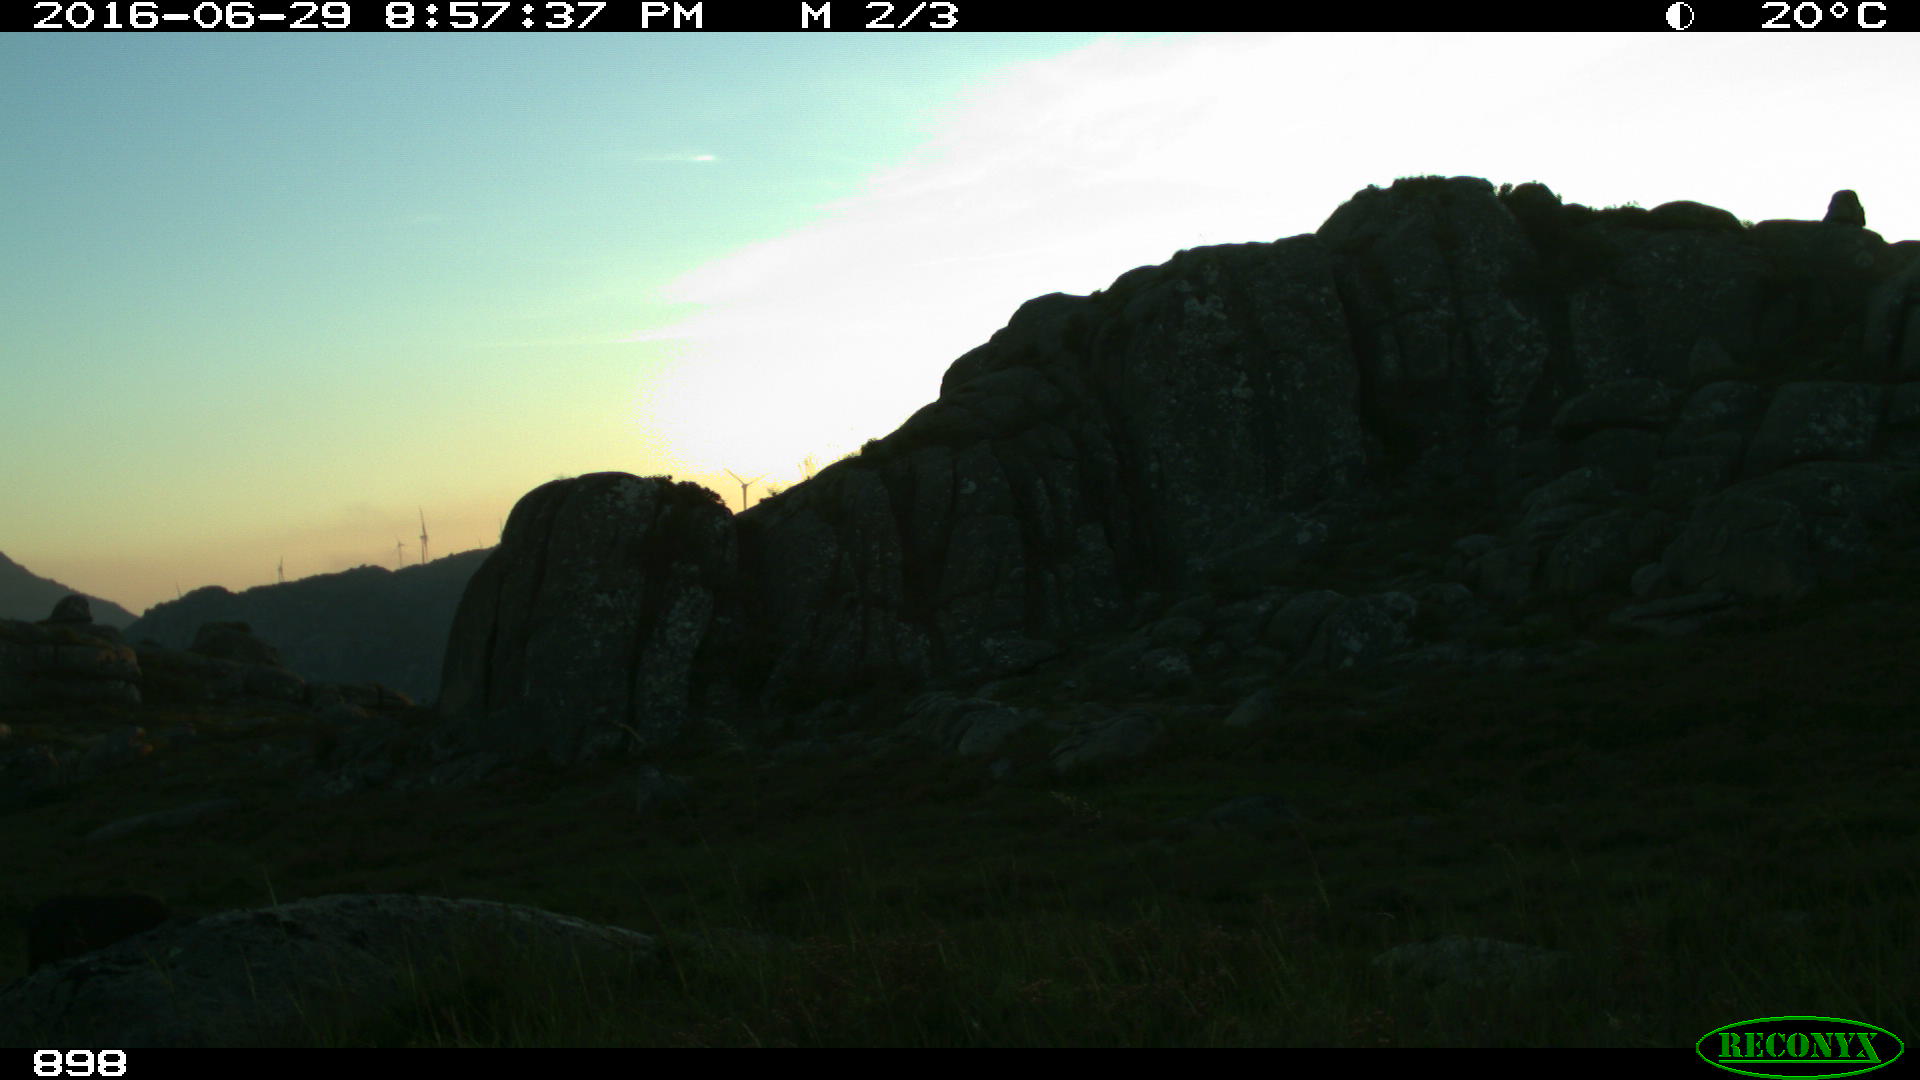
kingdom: Animalia
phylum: Chordata
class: Mammalia
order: Perissodactyla
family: Equidae
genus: Equus
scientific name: Equus caballus
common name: Horse
